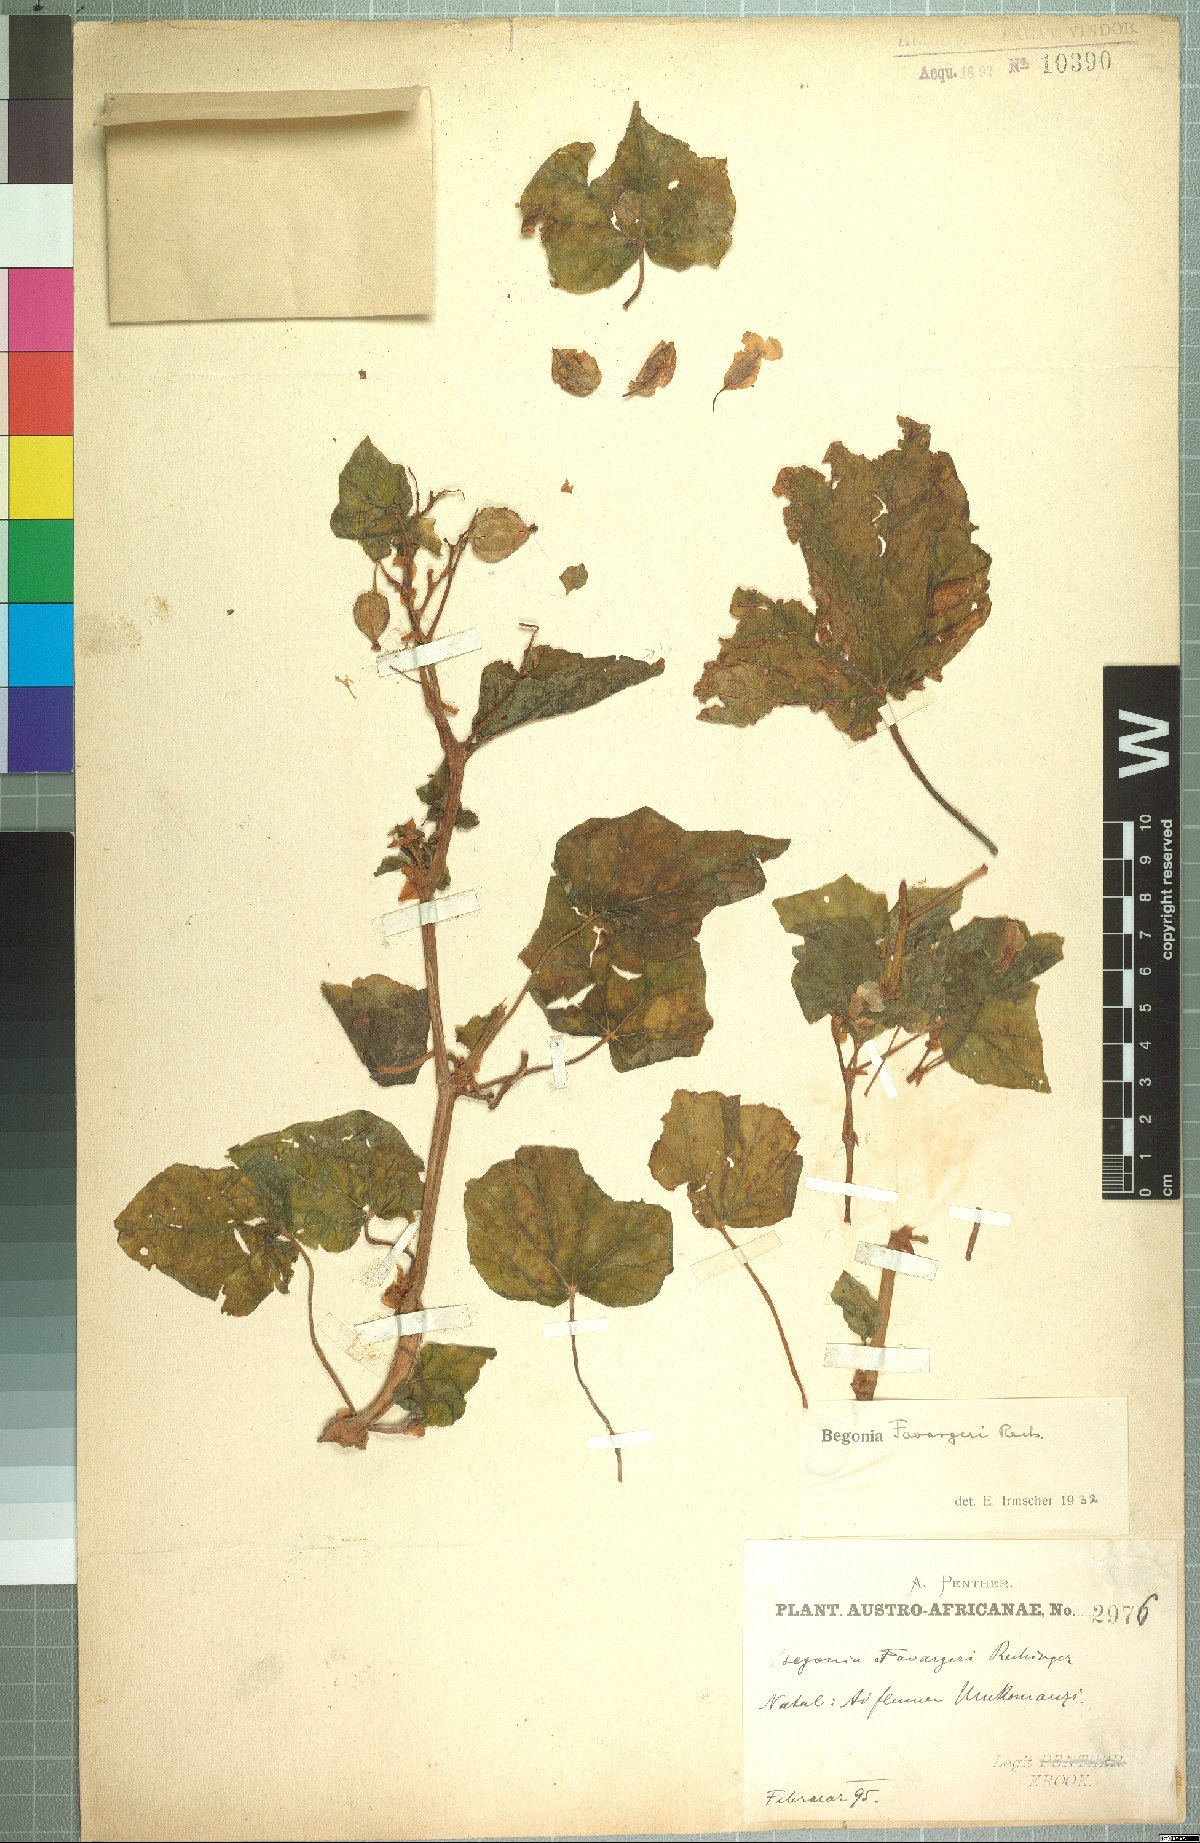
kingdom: Plantae
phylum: Tracheophyta
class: Magnoliopsida
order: Cucurbitales
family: Begoniaceae
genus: Begonia
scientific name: Begonia homonyma
